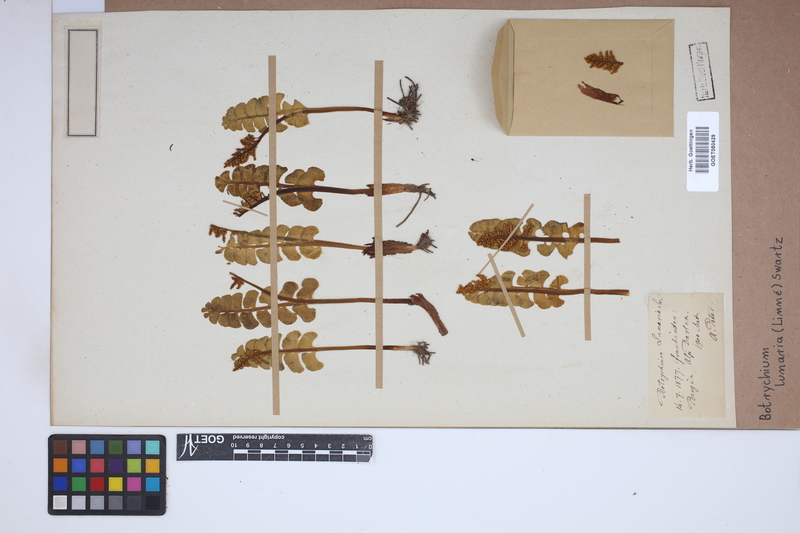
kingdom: Plantae
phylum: Tracheophyta
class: Polypodiopsida
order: Ophioglossales
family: Ophioglossaceae
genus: Botrychium
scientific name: Botrychium lunaria
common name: Moonwort
